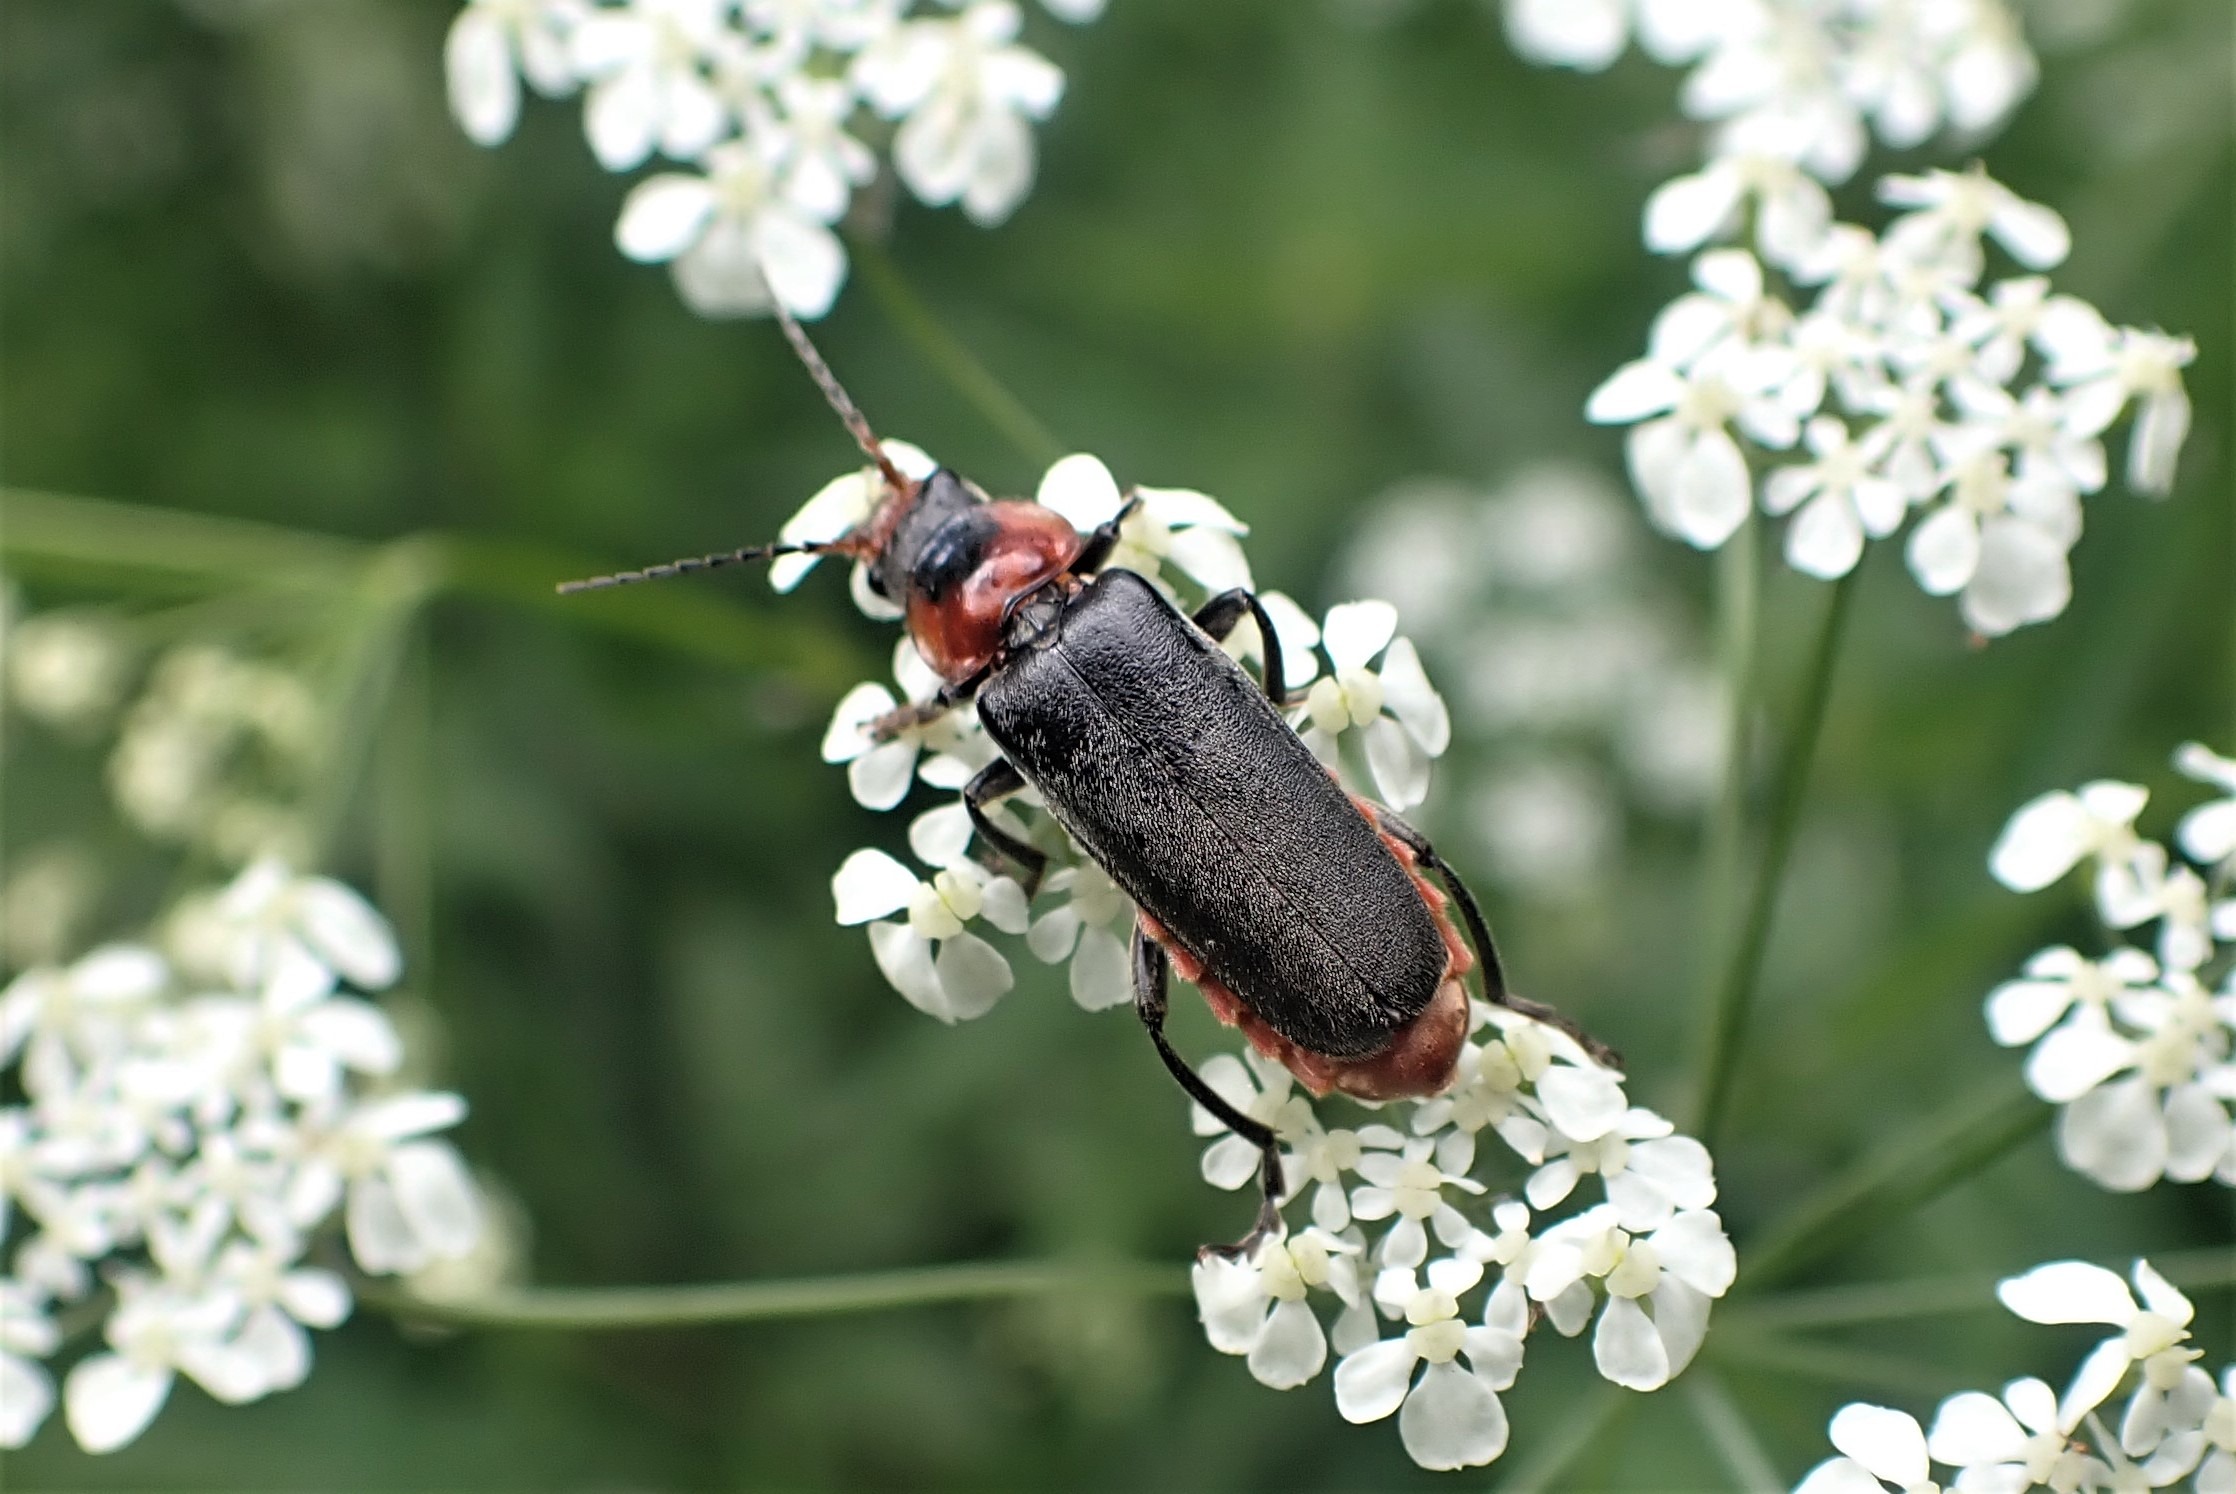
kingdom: Animalia
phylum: Arthropoda
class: Insecta
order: Coleoptera
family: Cantharidae
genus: Cantharis
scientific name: Cantharis fusca
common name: Stor blødvinge
